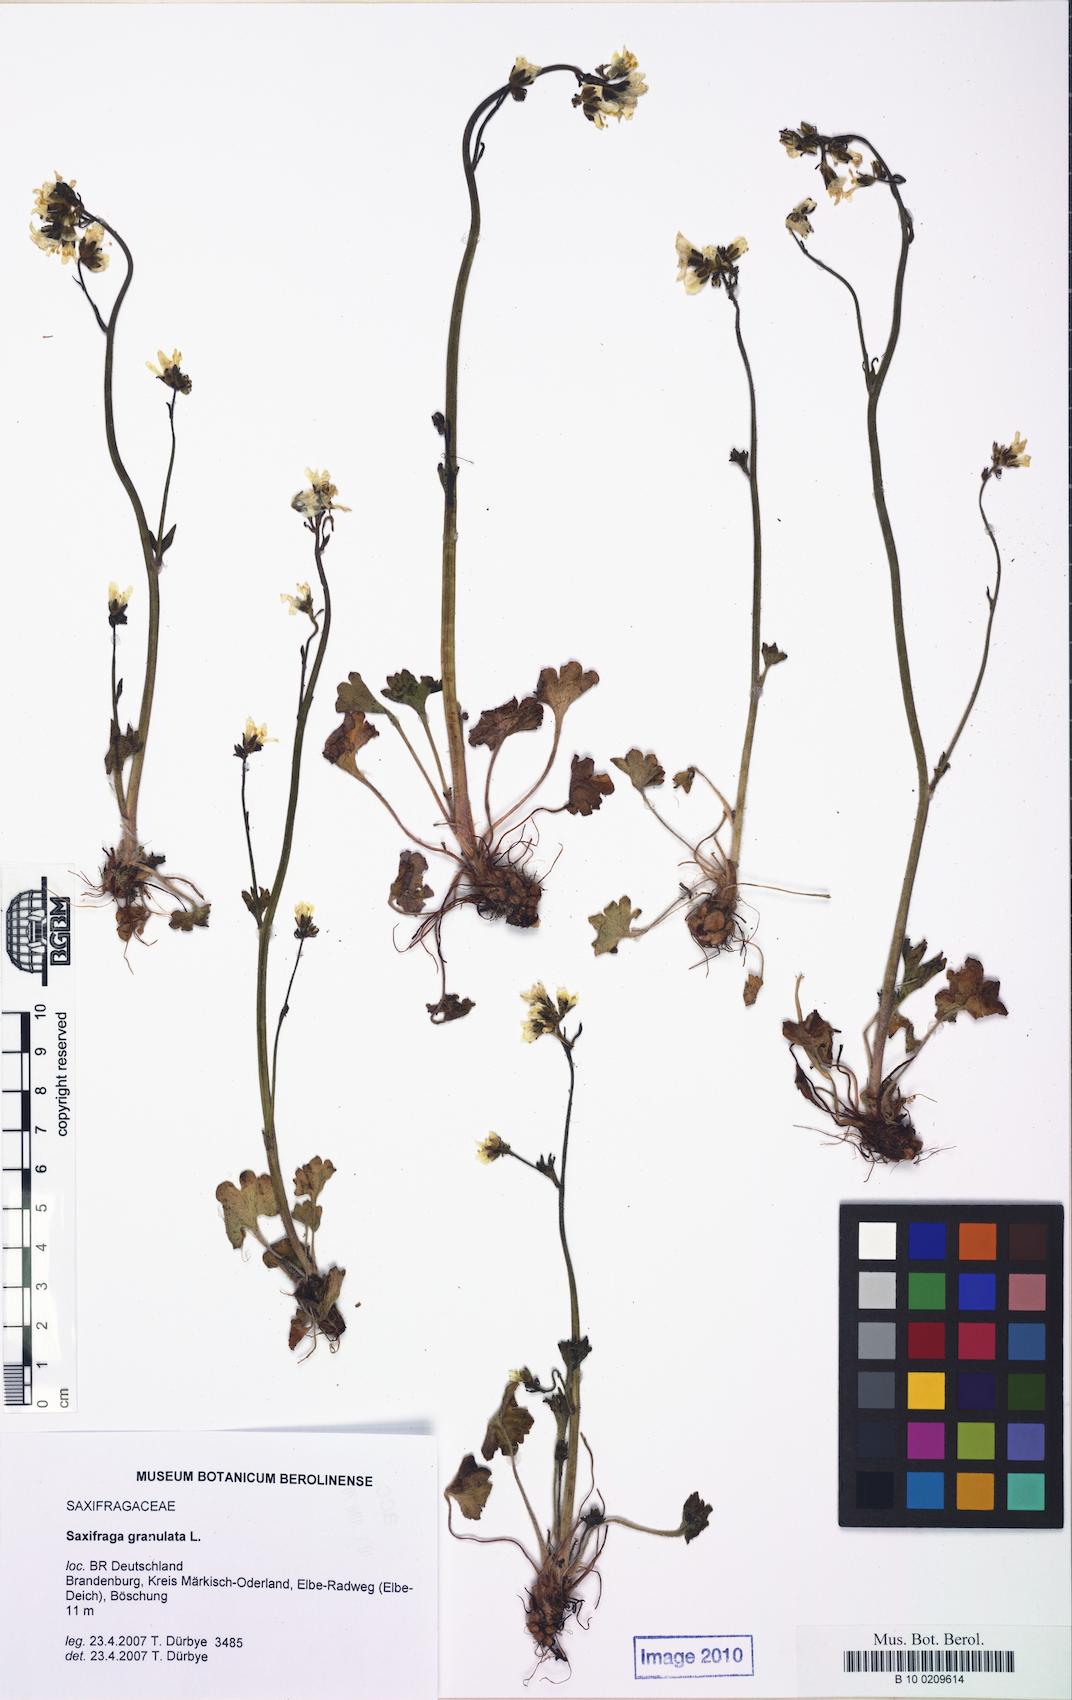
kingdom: Plantae
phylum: Tracheophyta
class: Magnoliopsida
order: Saxifragales
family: Saxifragaceae
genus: Saxifraga
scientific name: Saxifraga granulata
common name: Meadow saxifrage
